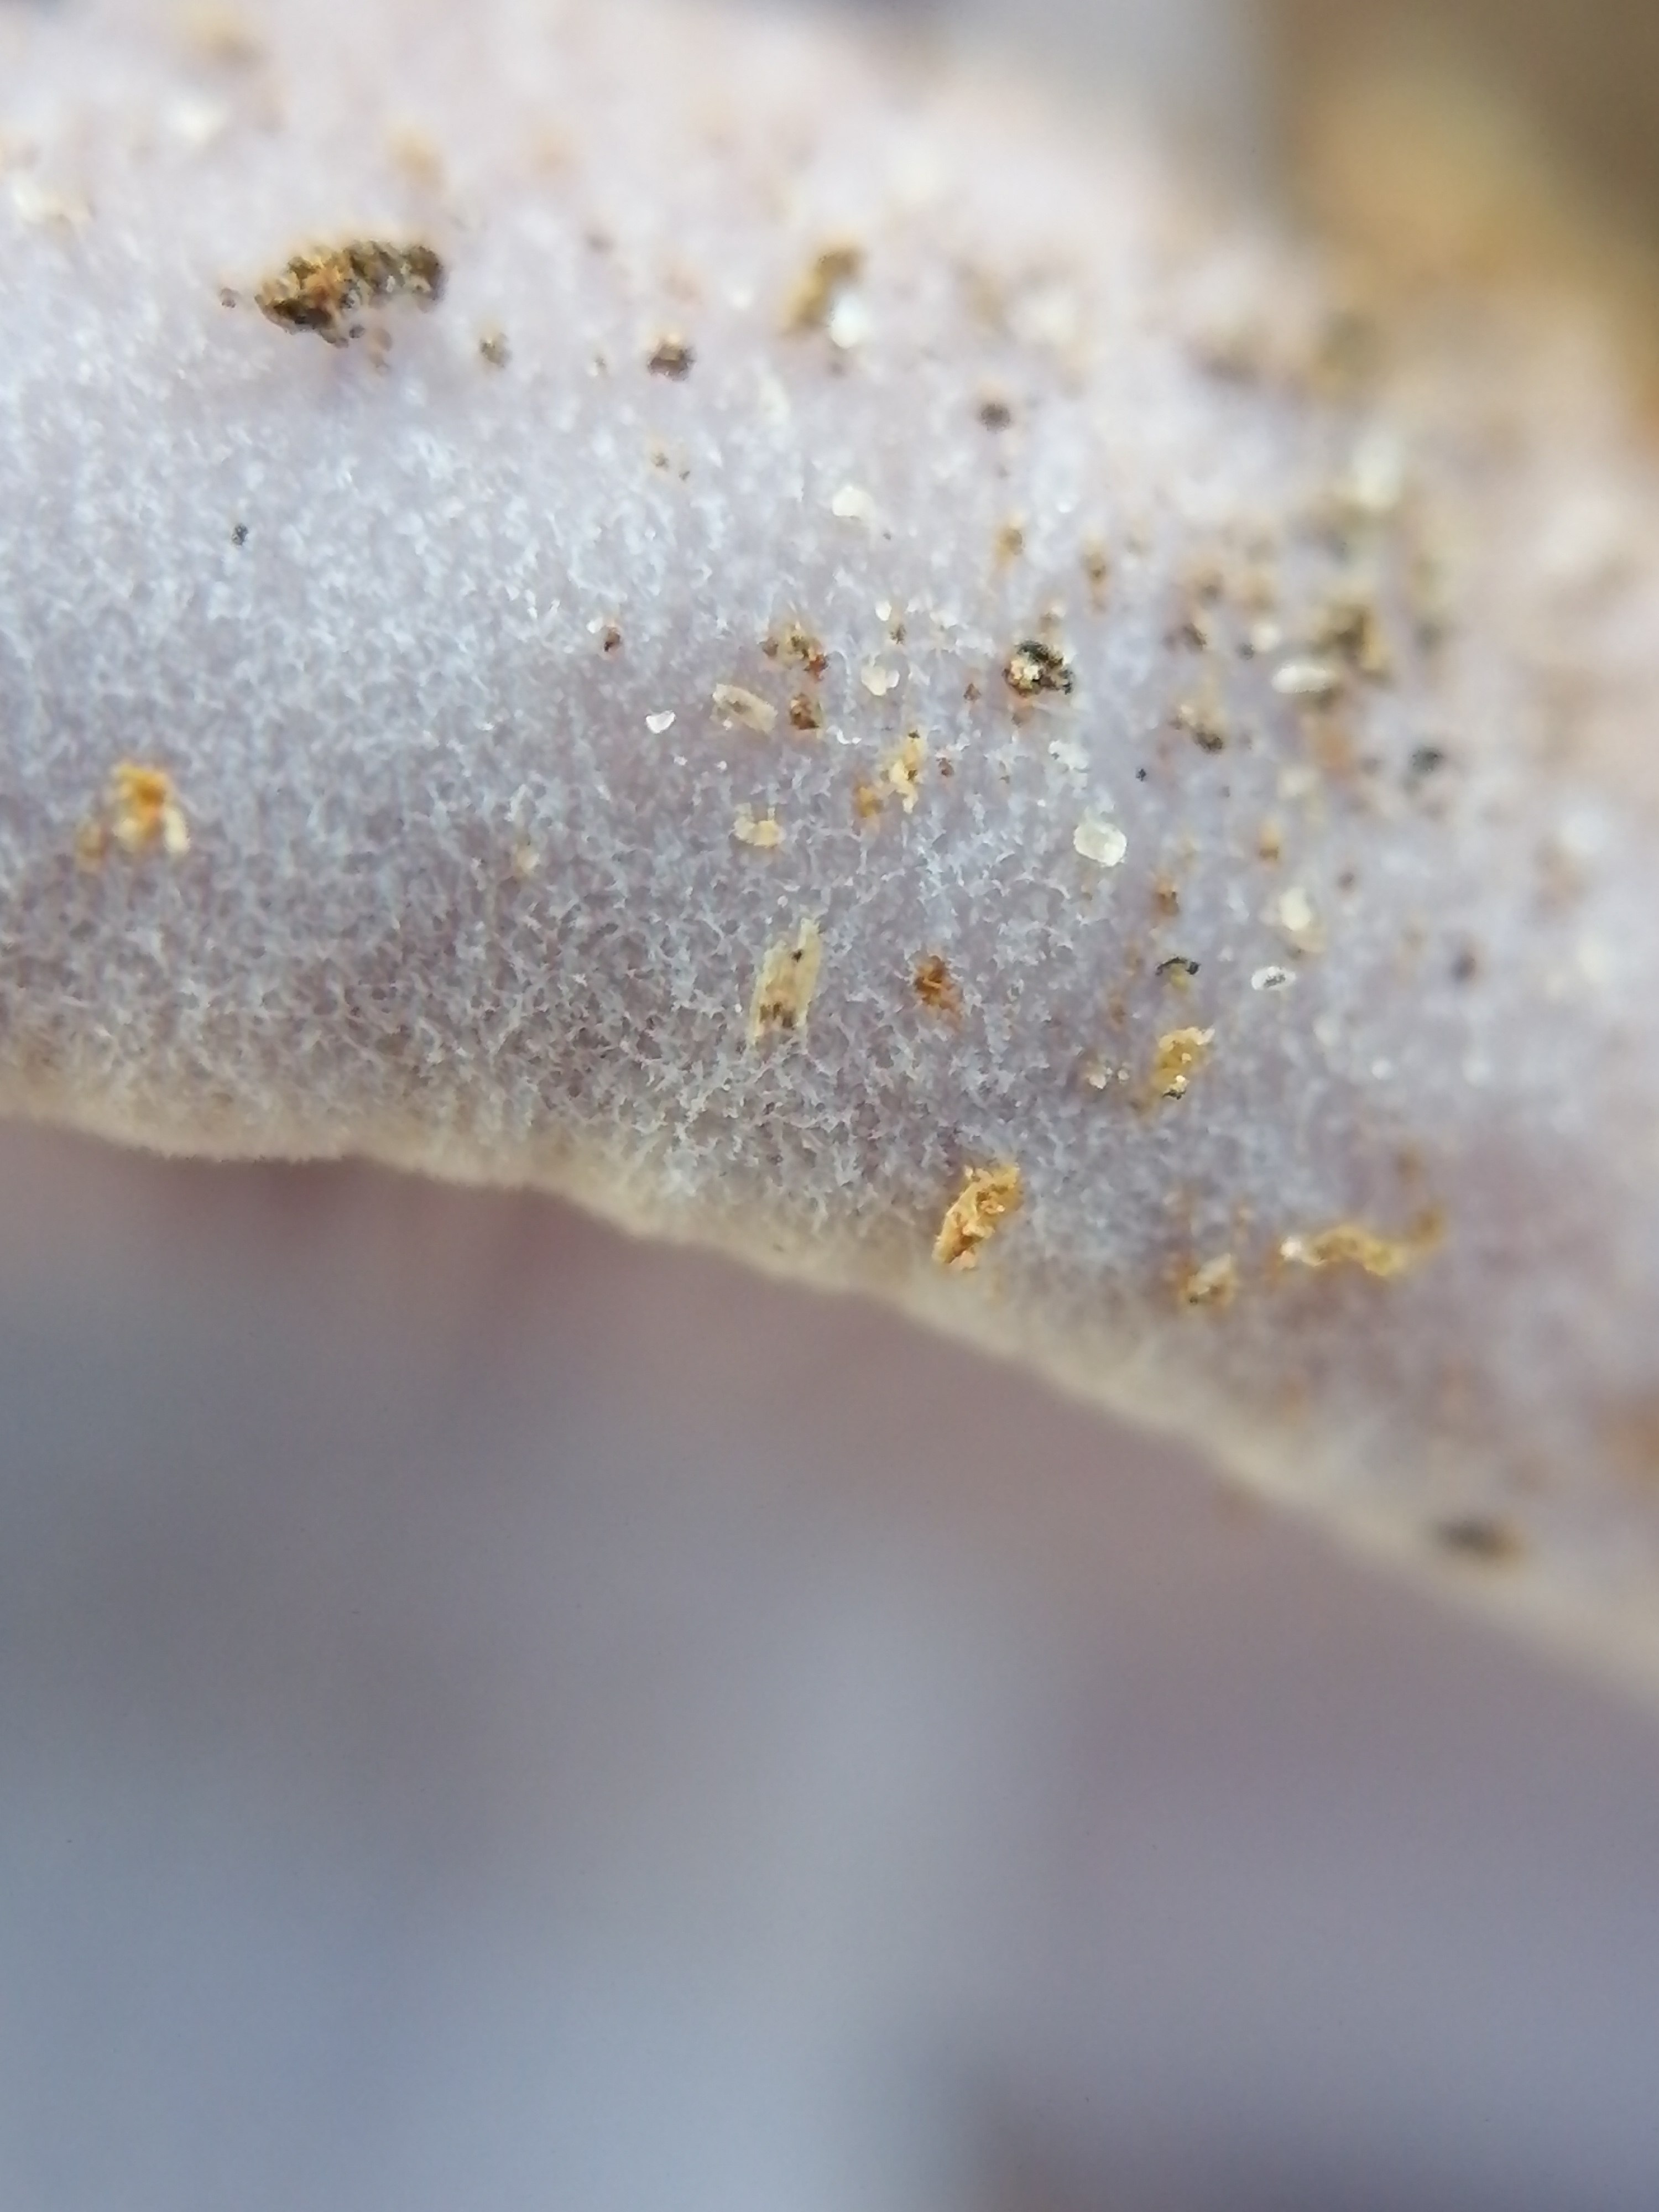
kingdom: Fungi
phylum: Basidiomycota
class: Agaricomycetes
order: Agaricales
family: Tricholomataceae
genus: Lepista
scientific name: Lepista nuda
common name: violet hekseringshat
